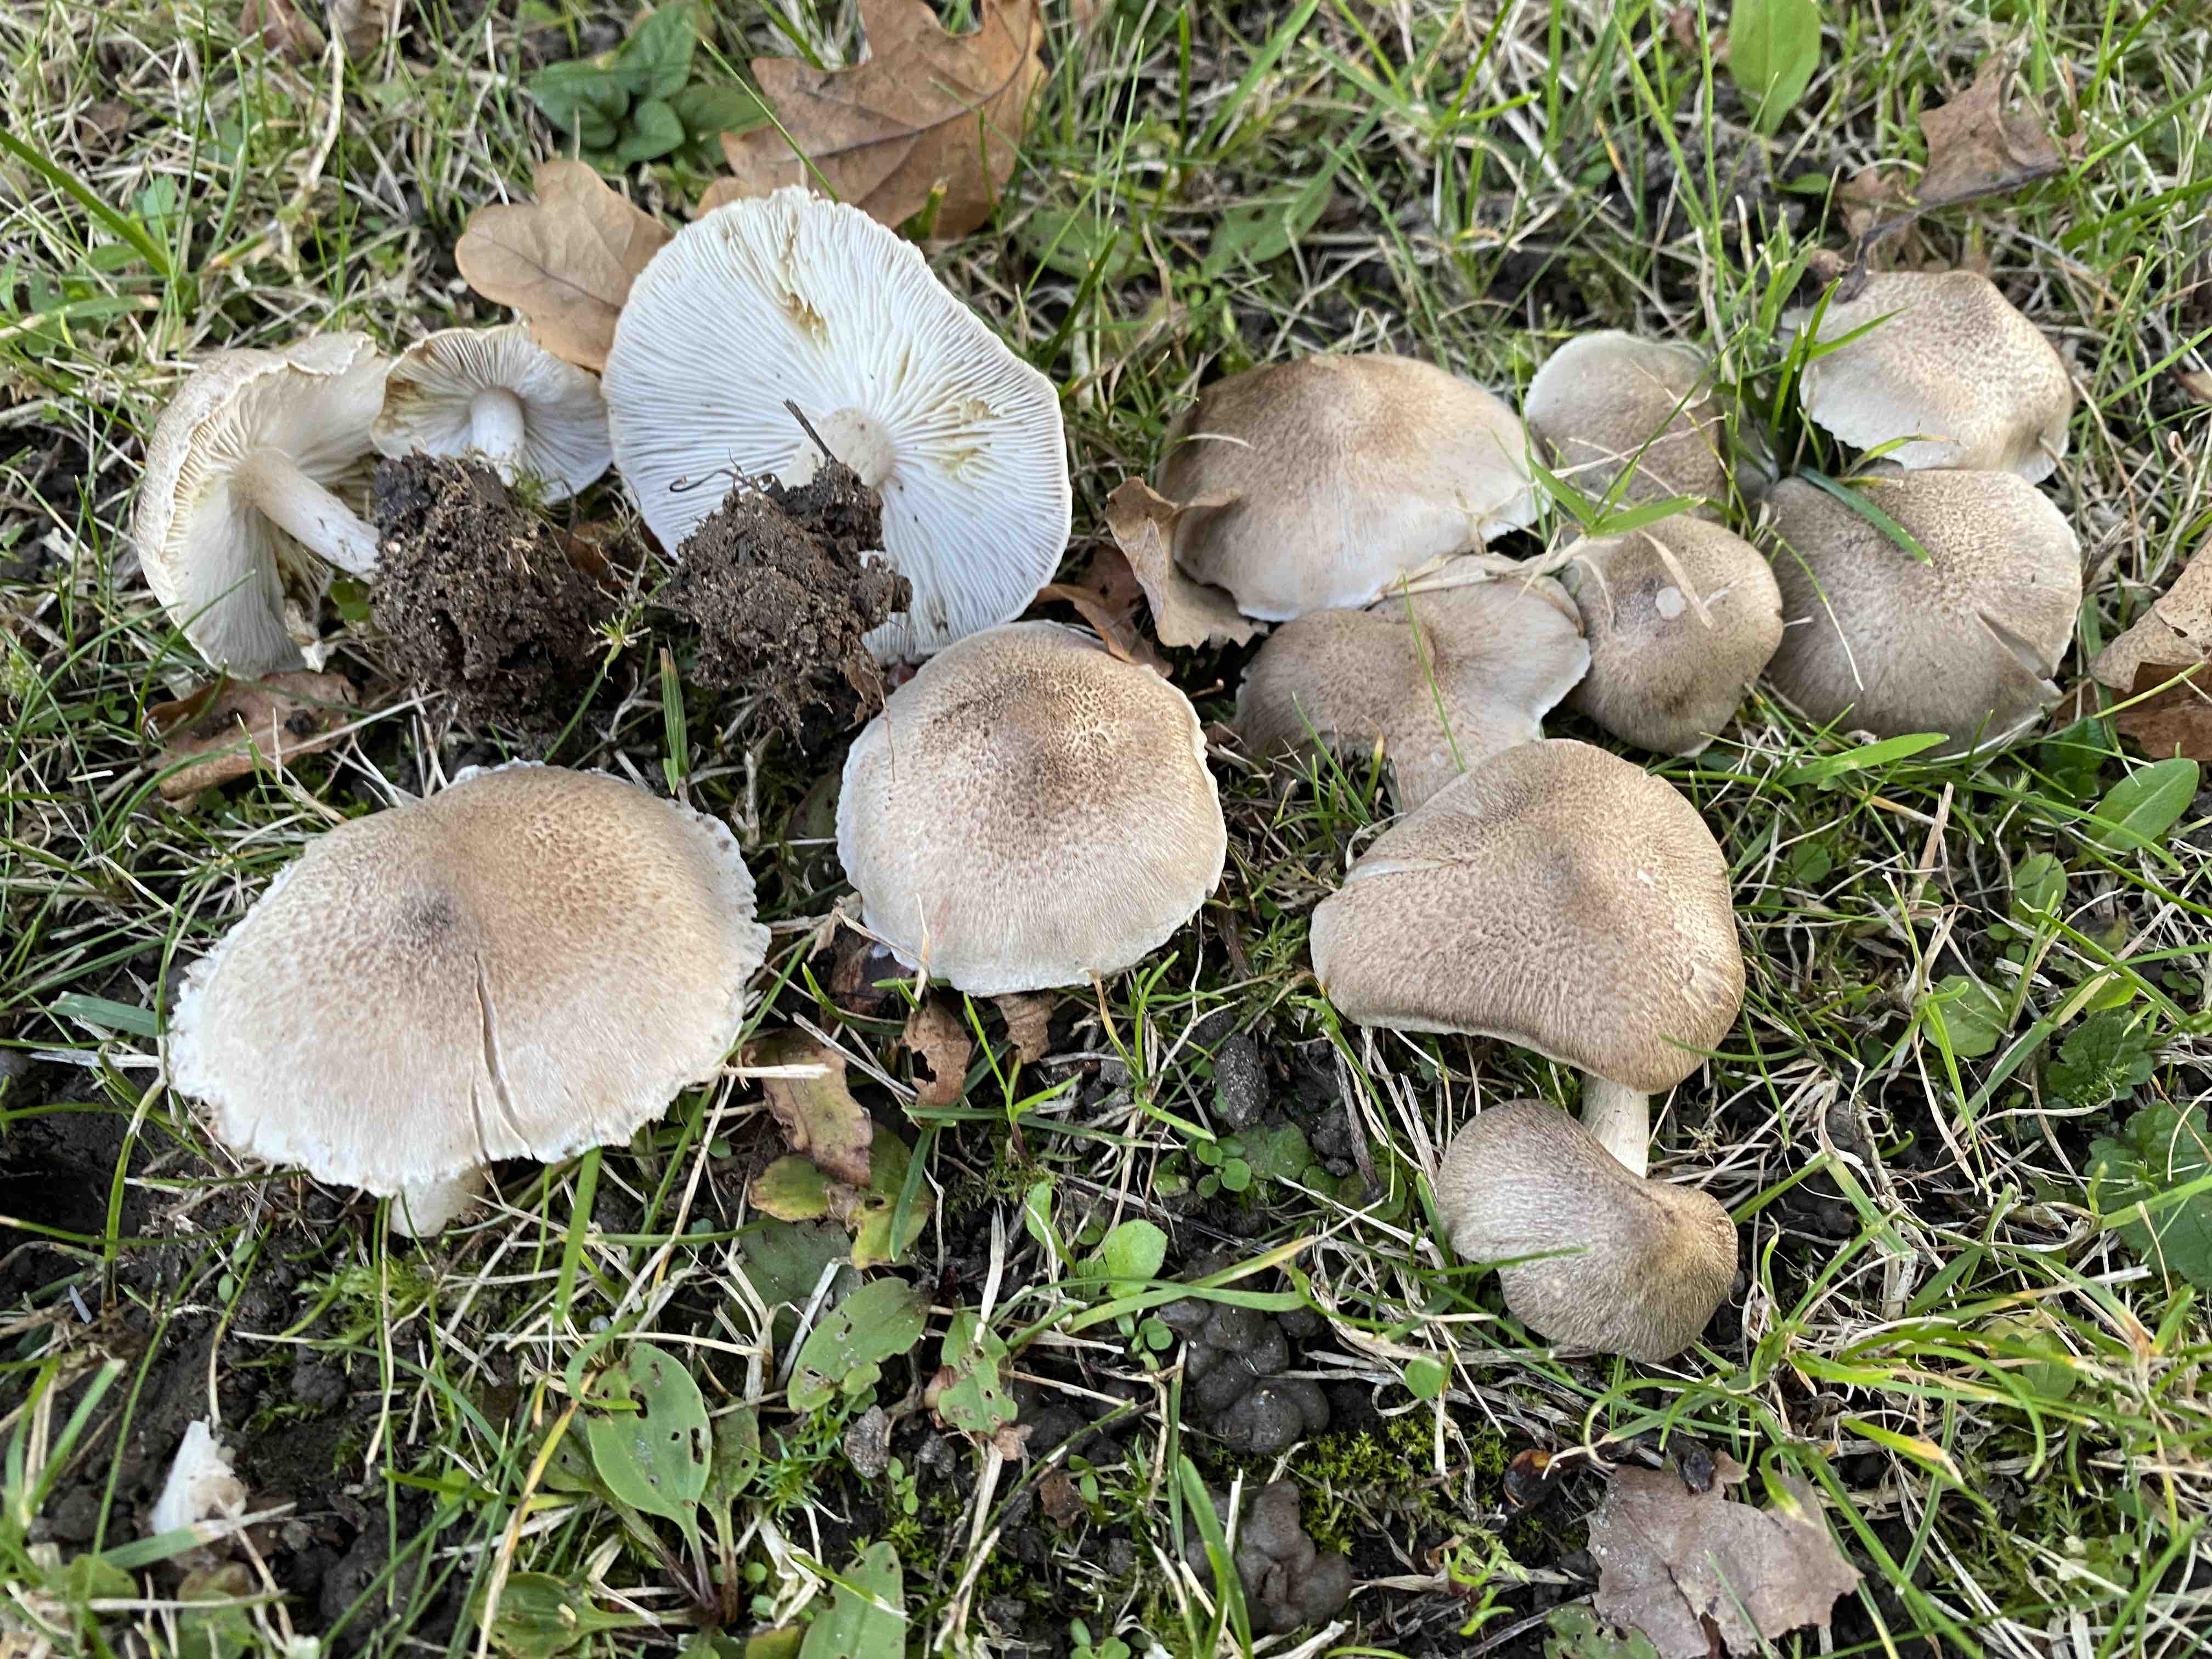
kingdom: Fungi
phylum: Basidiomycota
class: Agaricomycetes
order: Agaricales
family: Tricholomataceae
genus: Tricholoma
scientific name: Tricholoma scalpturatum
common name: gulplettet ridderhat
